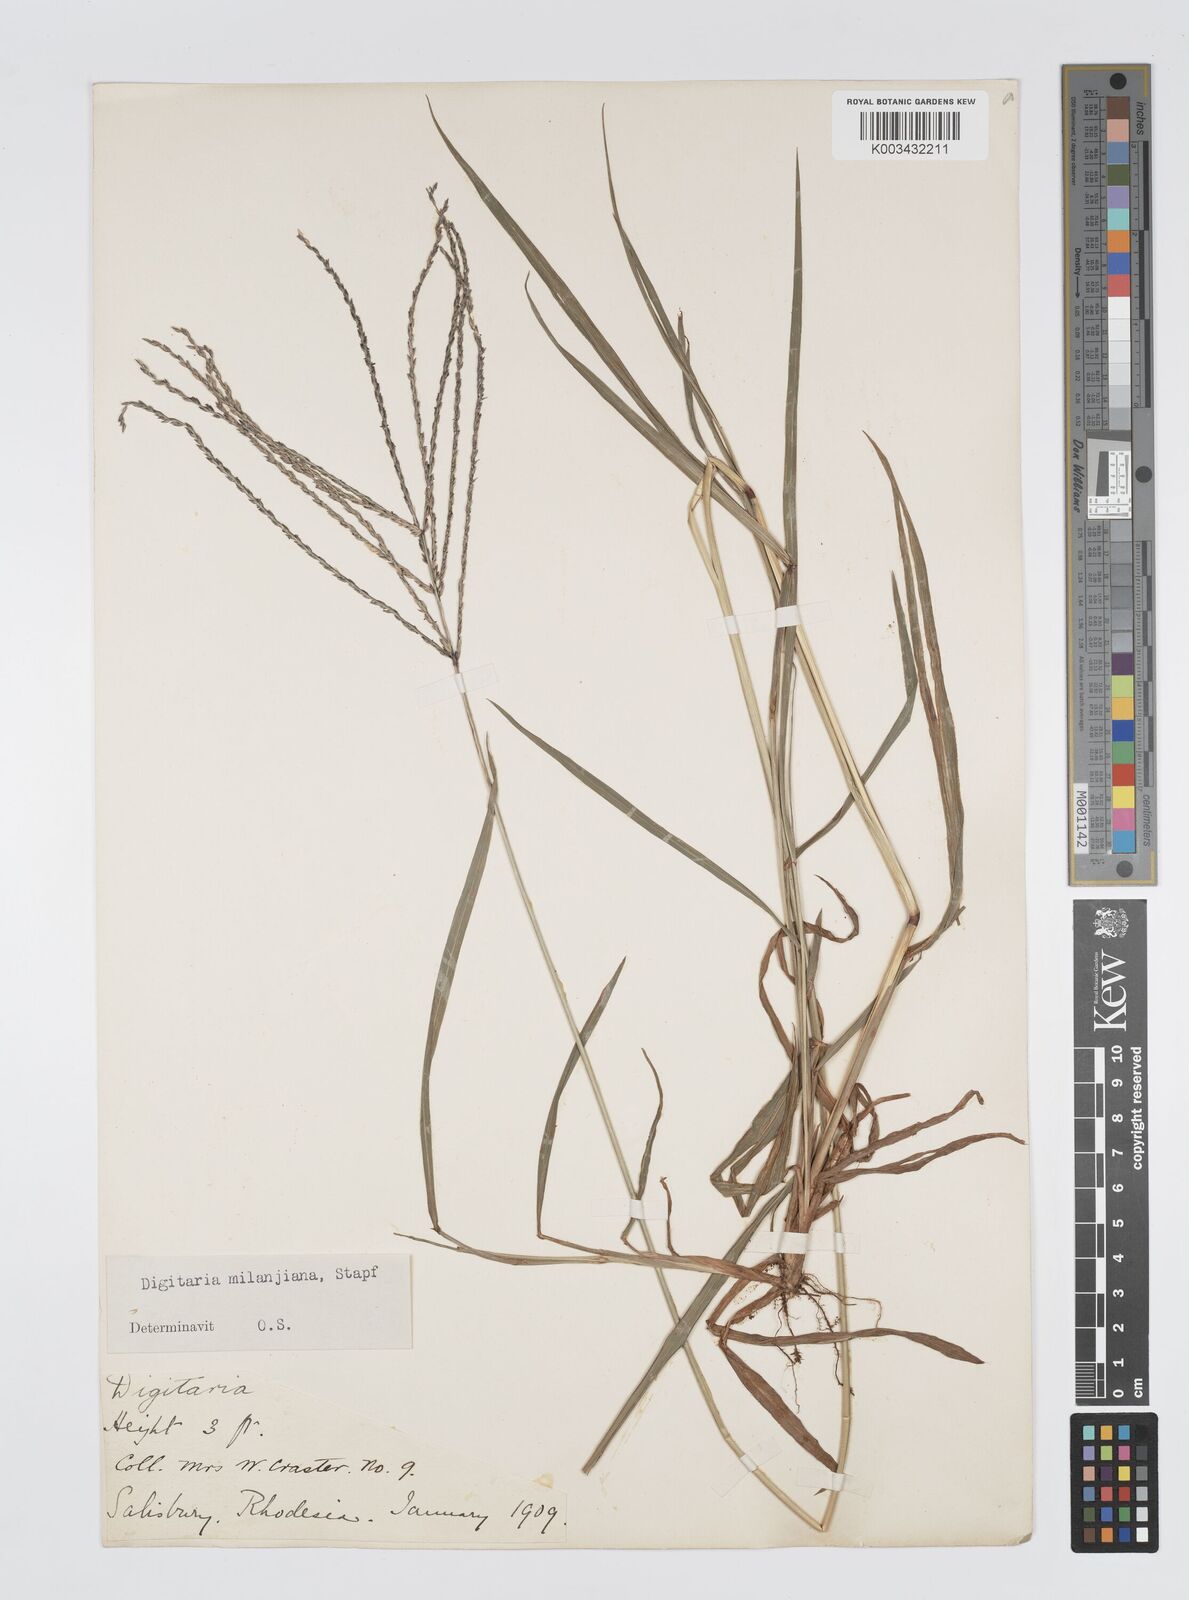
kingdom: Plantae
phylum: Tracheophyta
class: Liliopsida
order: Poales
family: Poaceae
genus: Digitaria
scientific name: Digitaria milanjiana
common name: Madagascar crabgrass
